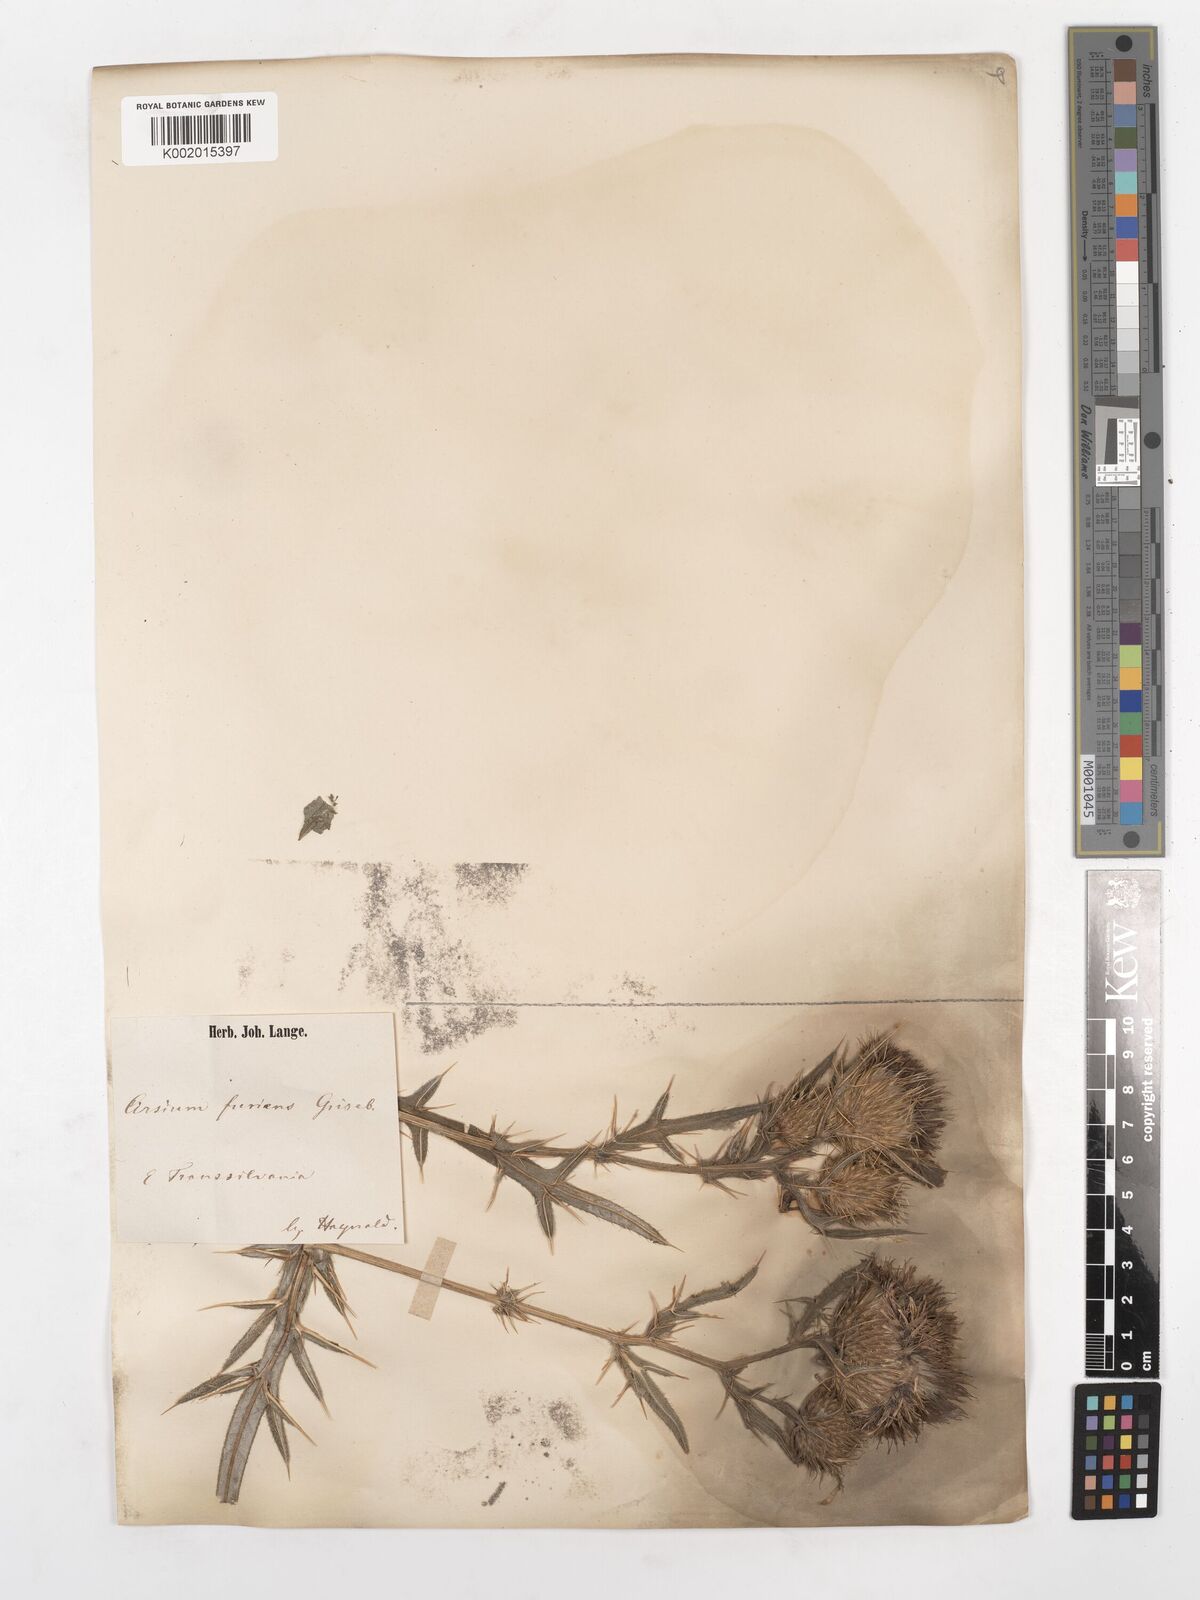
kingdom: Plantae
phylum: Tracheophyta
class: Magnoliopsida
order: Asterales
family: Asteraceae
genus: Cirsium
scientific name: Cirsium
